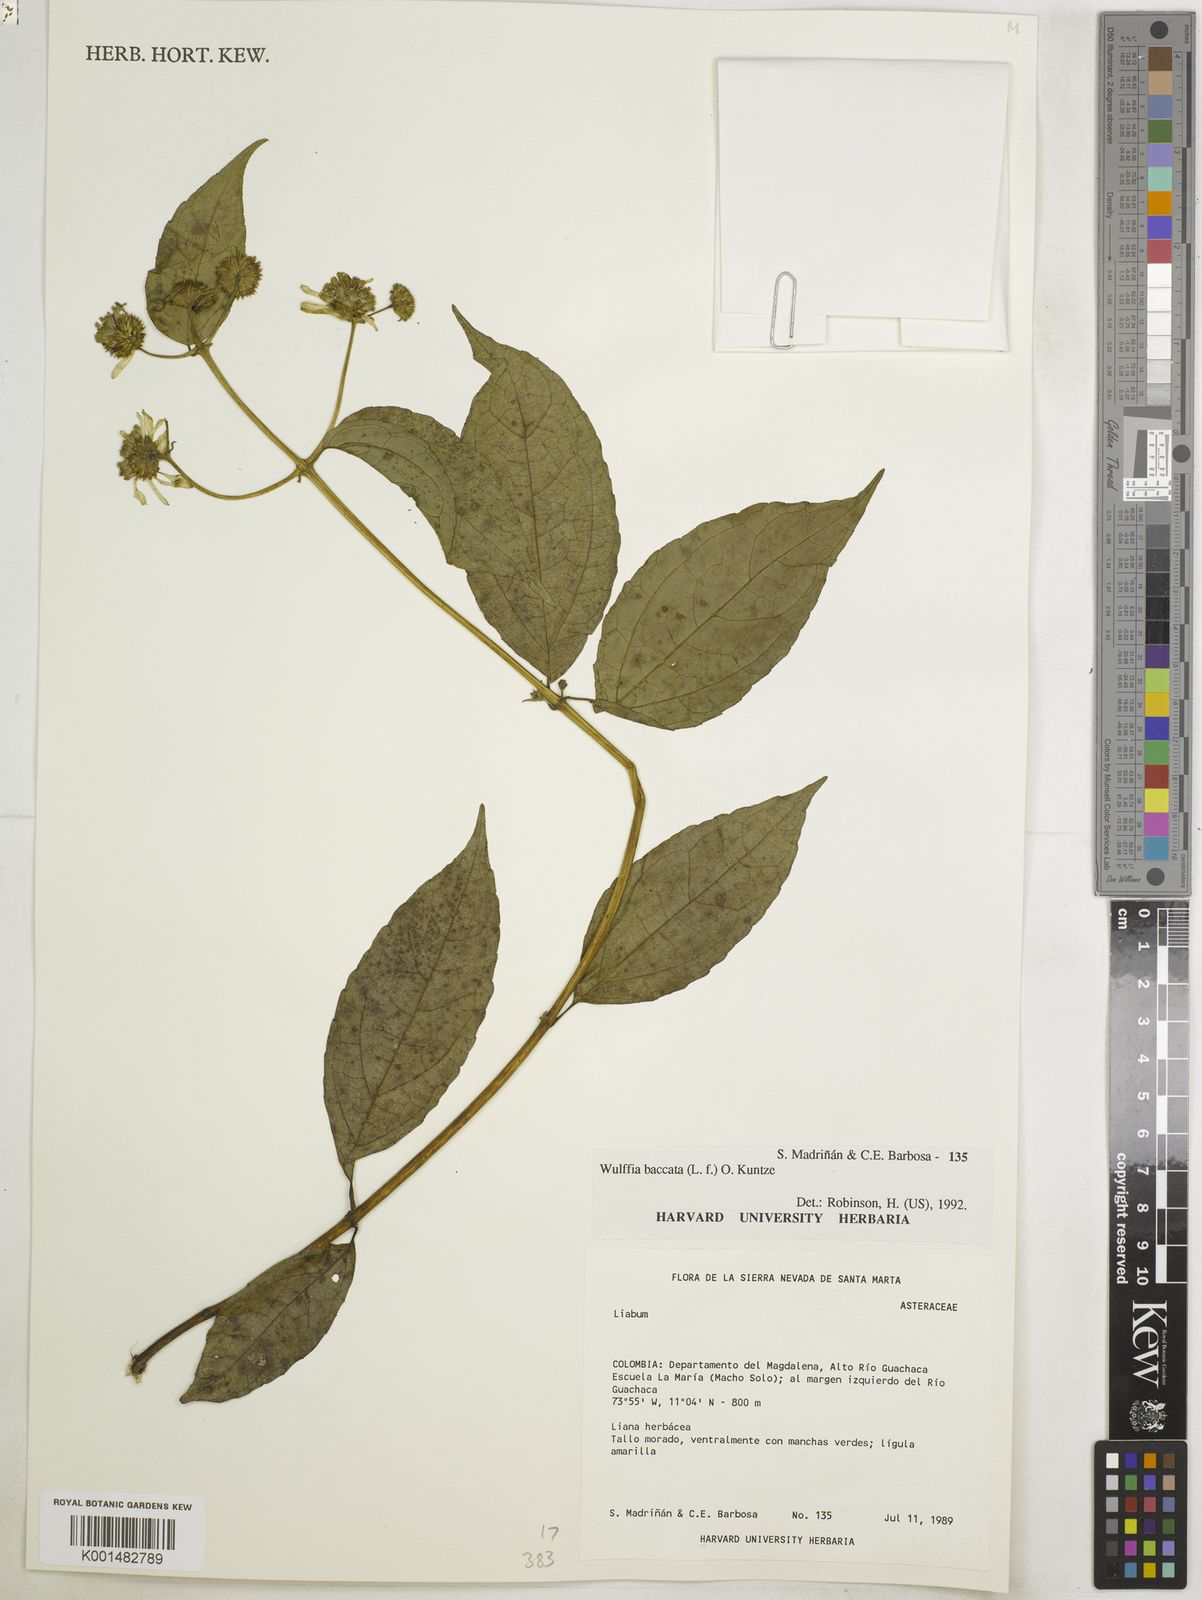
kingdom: Plantae
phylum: Tracheophyta
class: Magnoliopsida
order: Asterales
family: Asteraceae
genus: Tilesia
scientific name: Tilesia baccata
